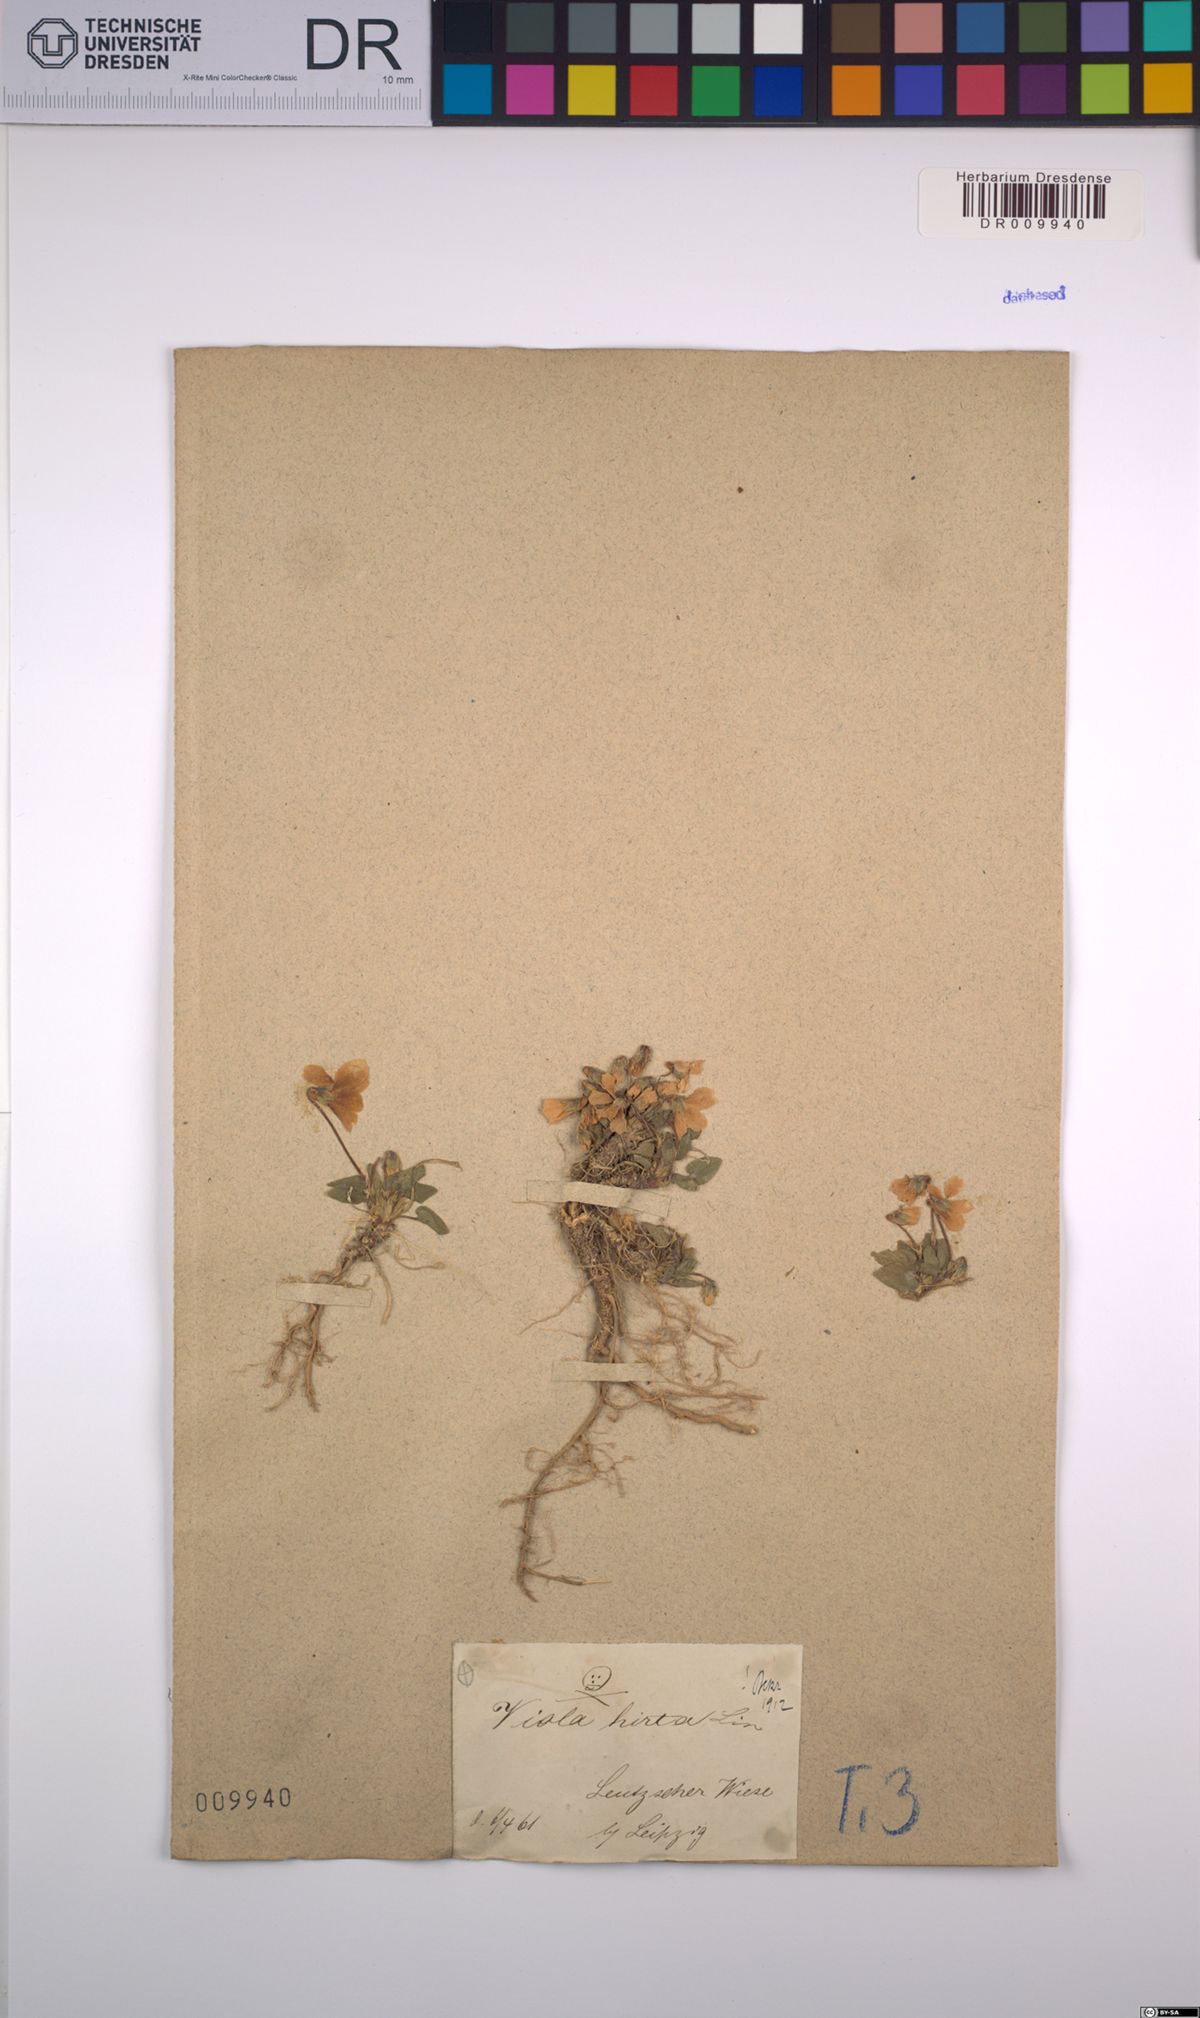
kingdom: Plantae
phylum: Tracheophyta
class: Magnoliopsida
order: Malpighiales
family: Violaceae
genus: Viola
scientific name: Viola hirta
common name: Hairy violet
